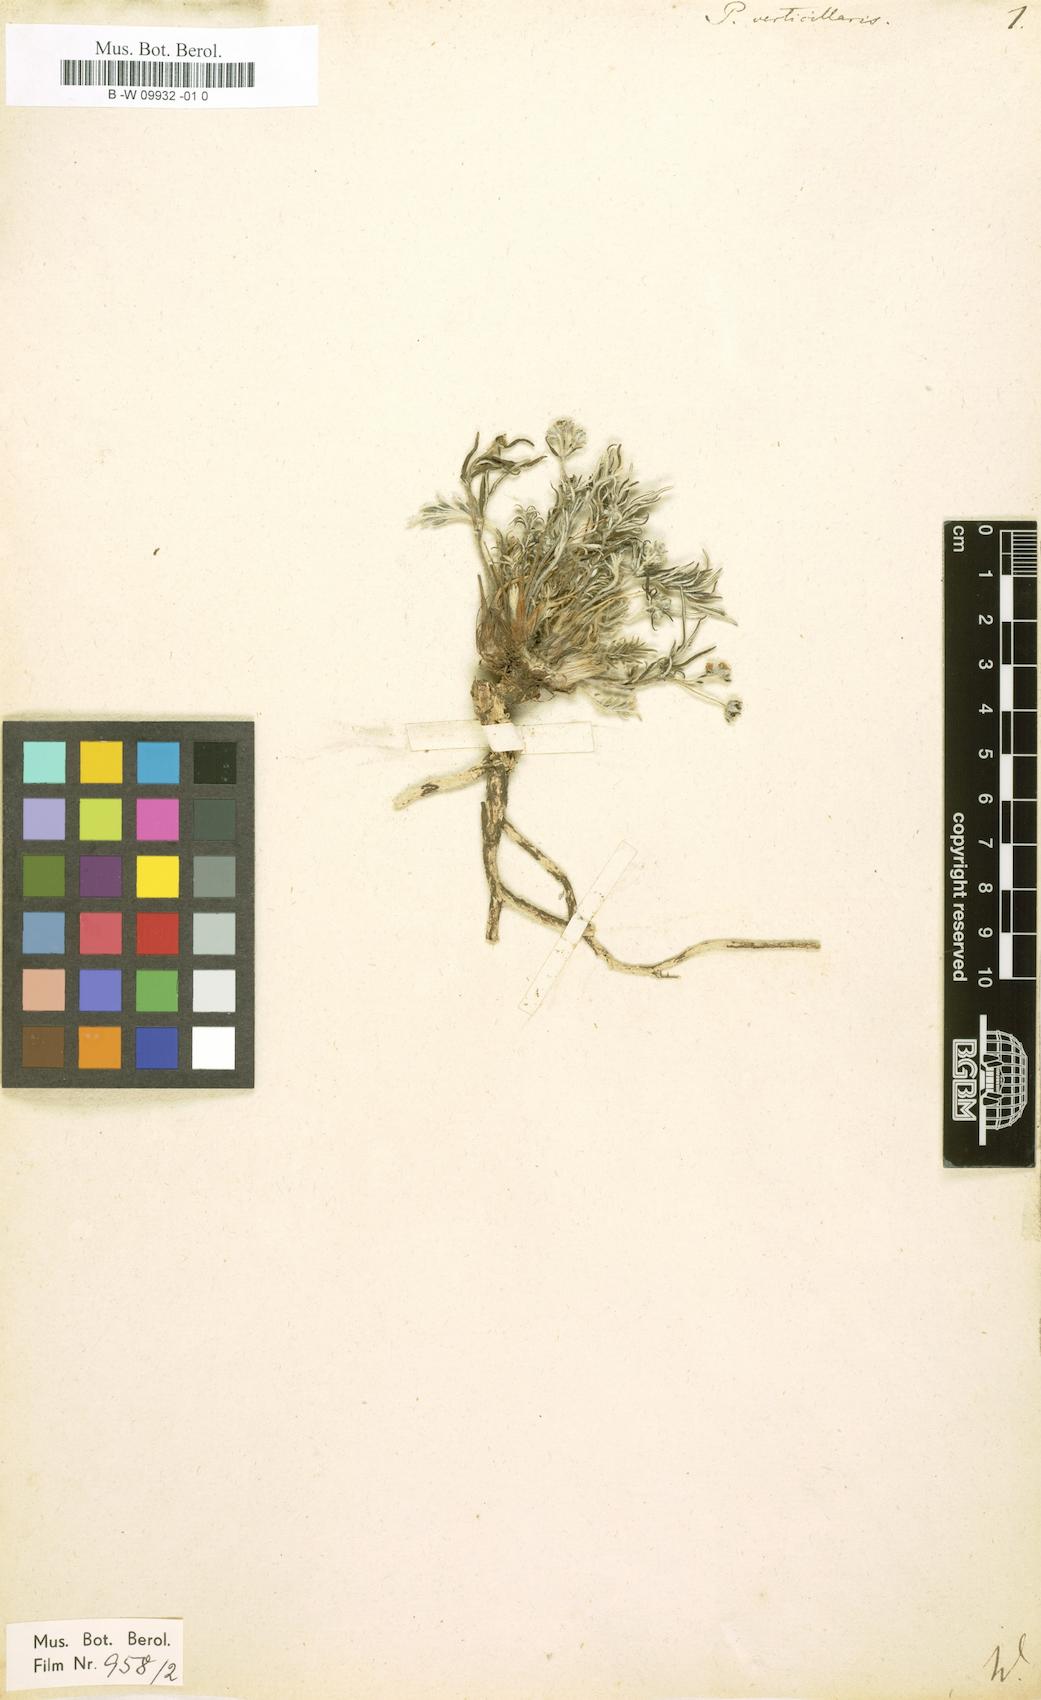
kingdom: Plantae
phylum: Tracheophyta
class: Magnoliopsida
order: Rosales
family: Rosaceae
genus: Potentilla
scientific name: Potentilla verticillaris
